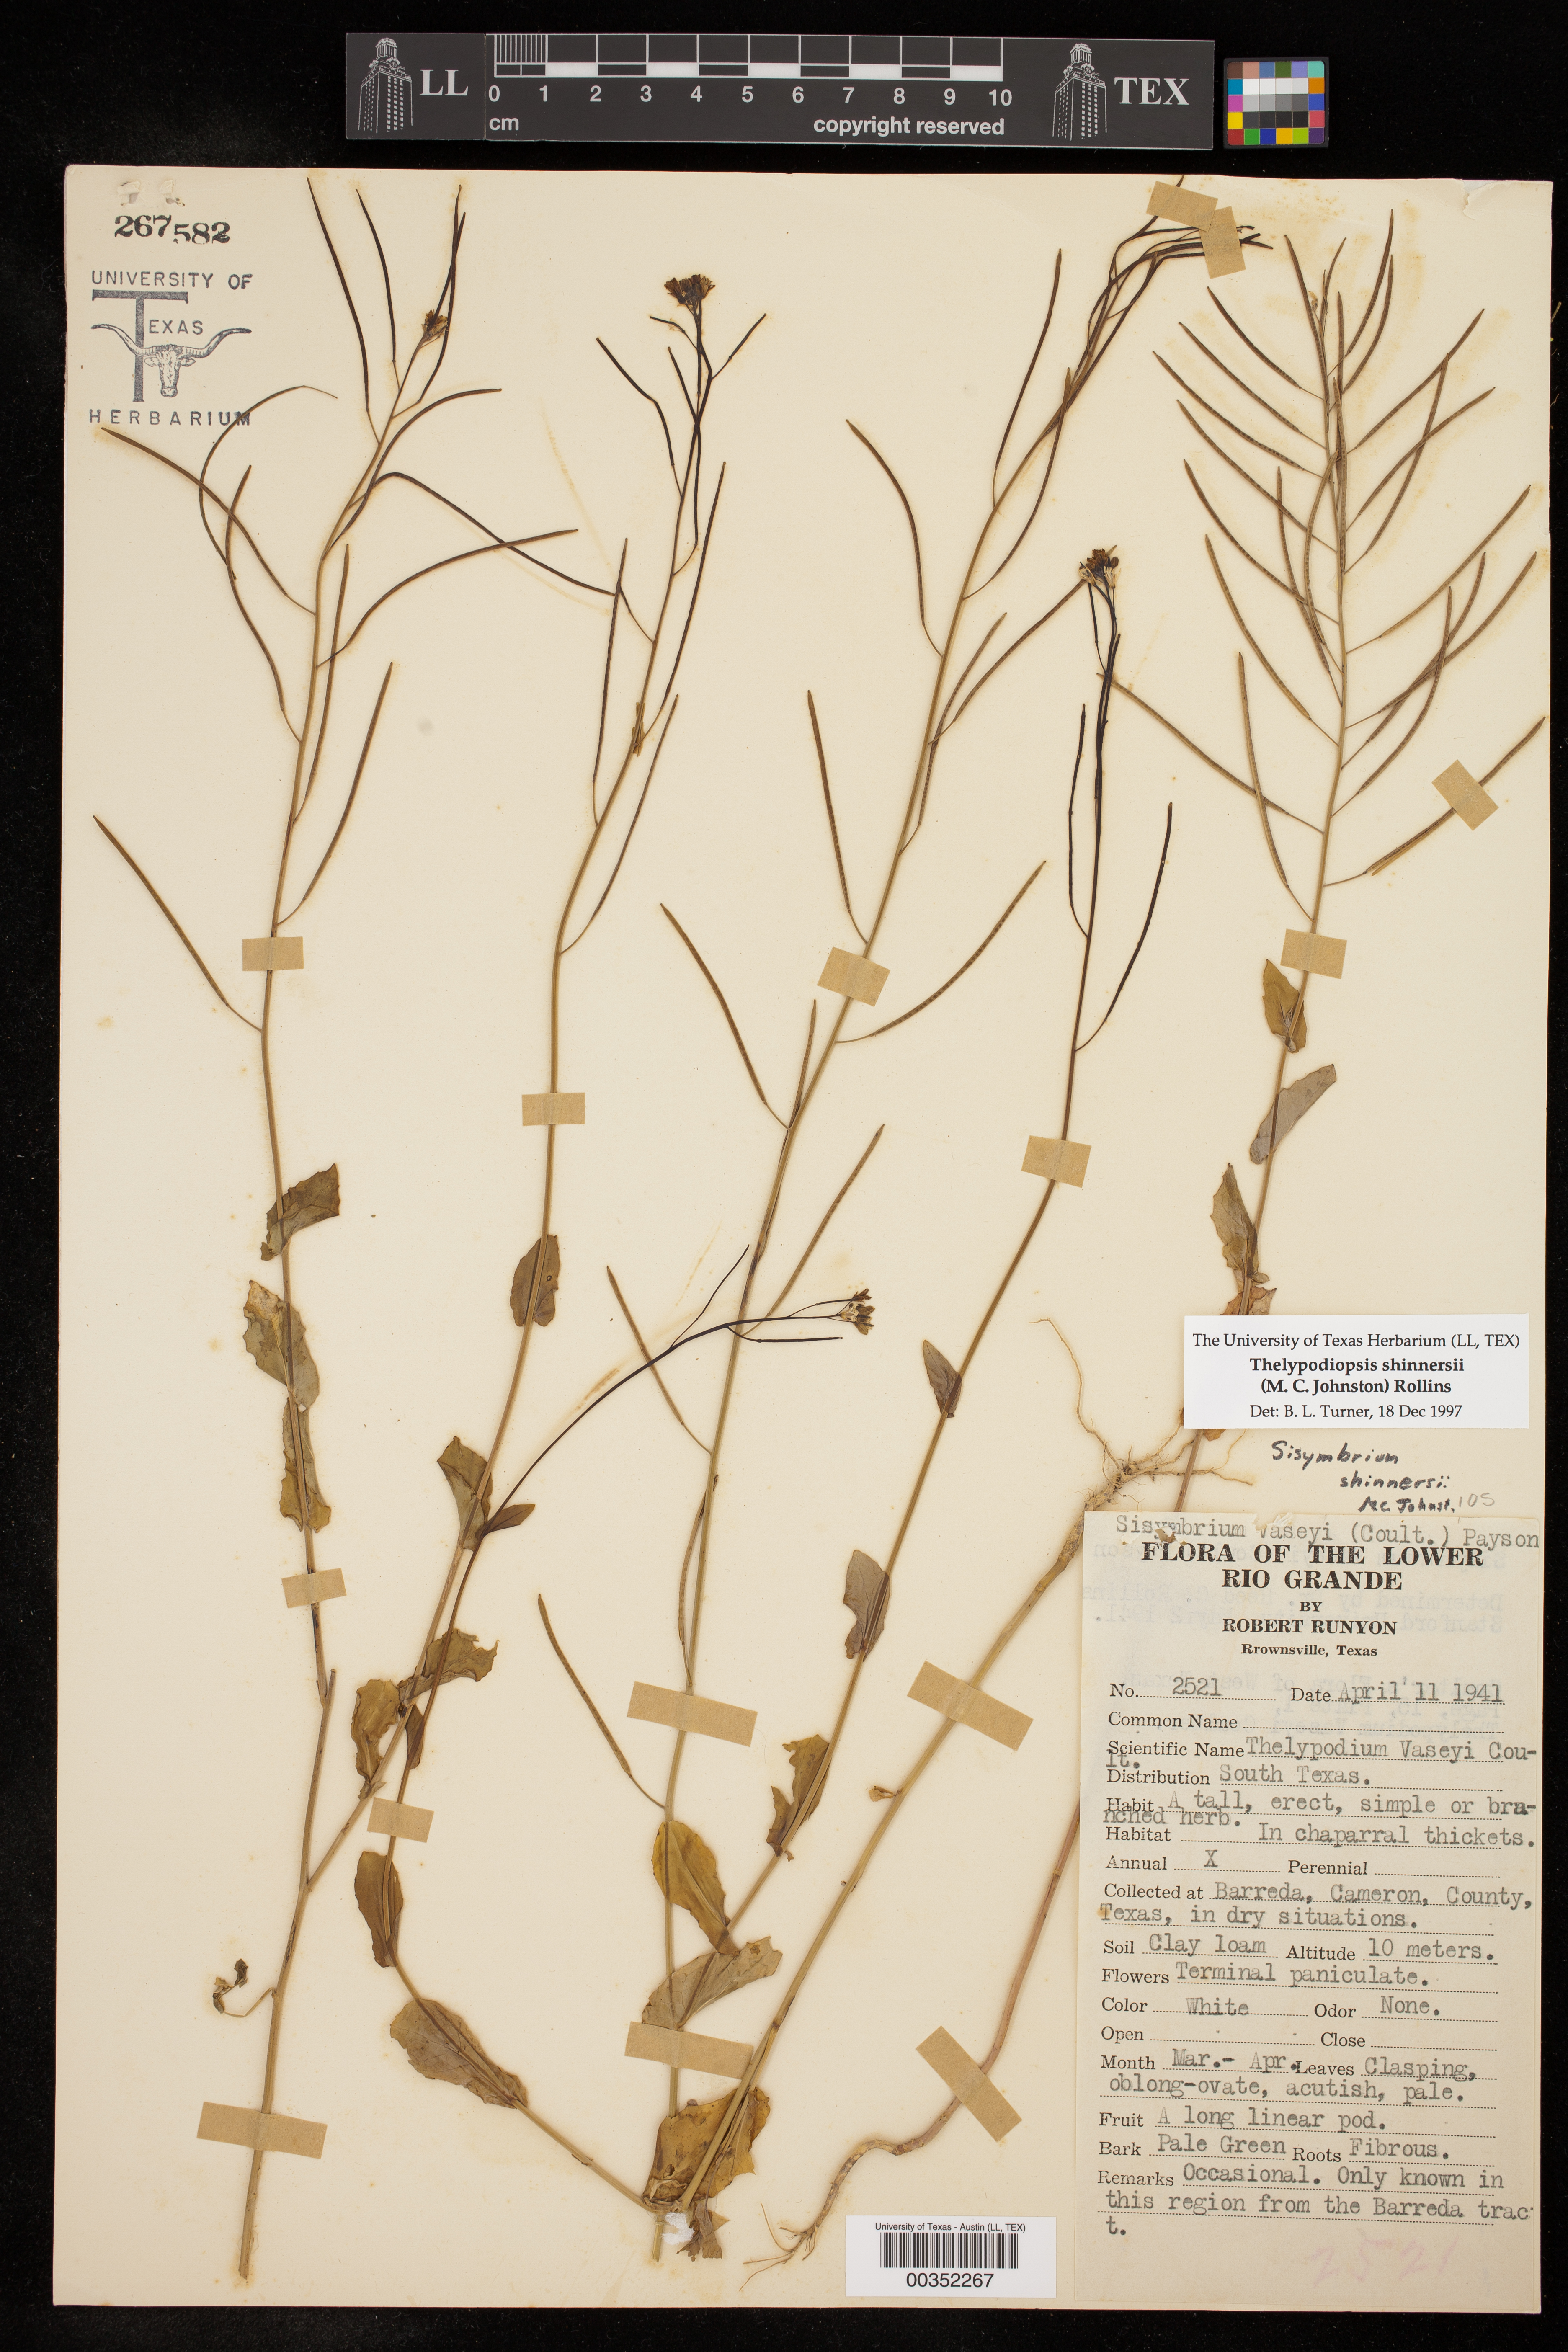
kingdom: Plantae
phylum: Tracheophyta
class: Magnoliopsida
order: Brassicales
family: Brassicaceae
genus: Mostacillastrum
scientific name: Mostacillastrum vaseyi
